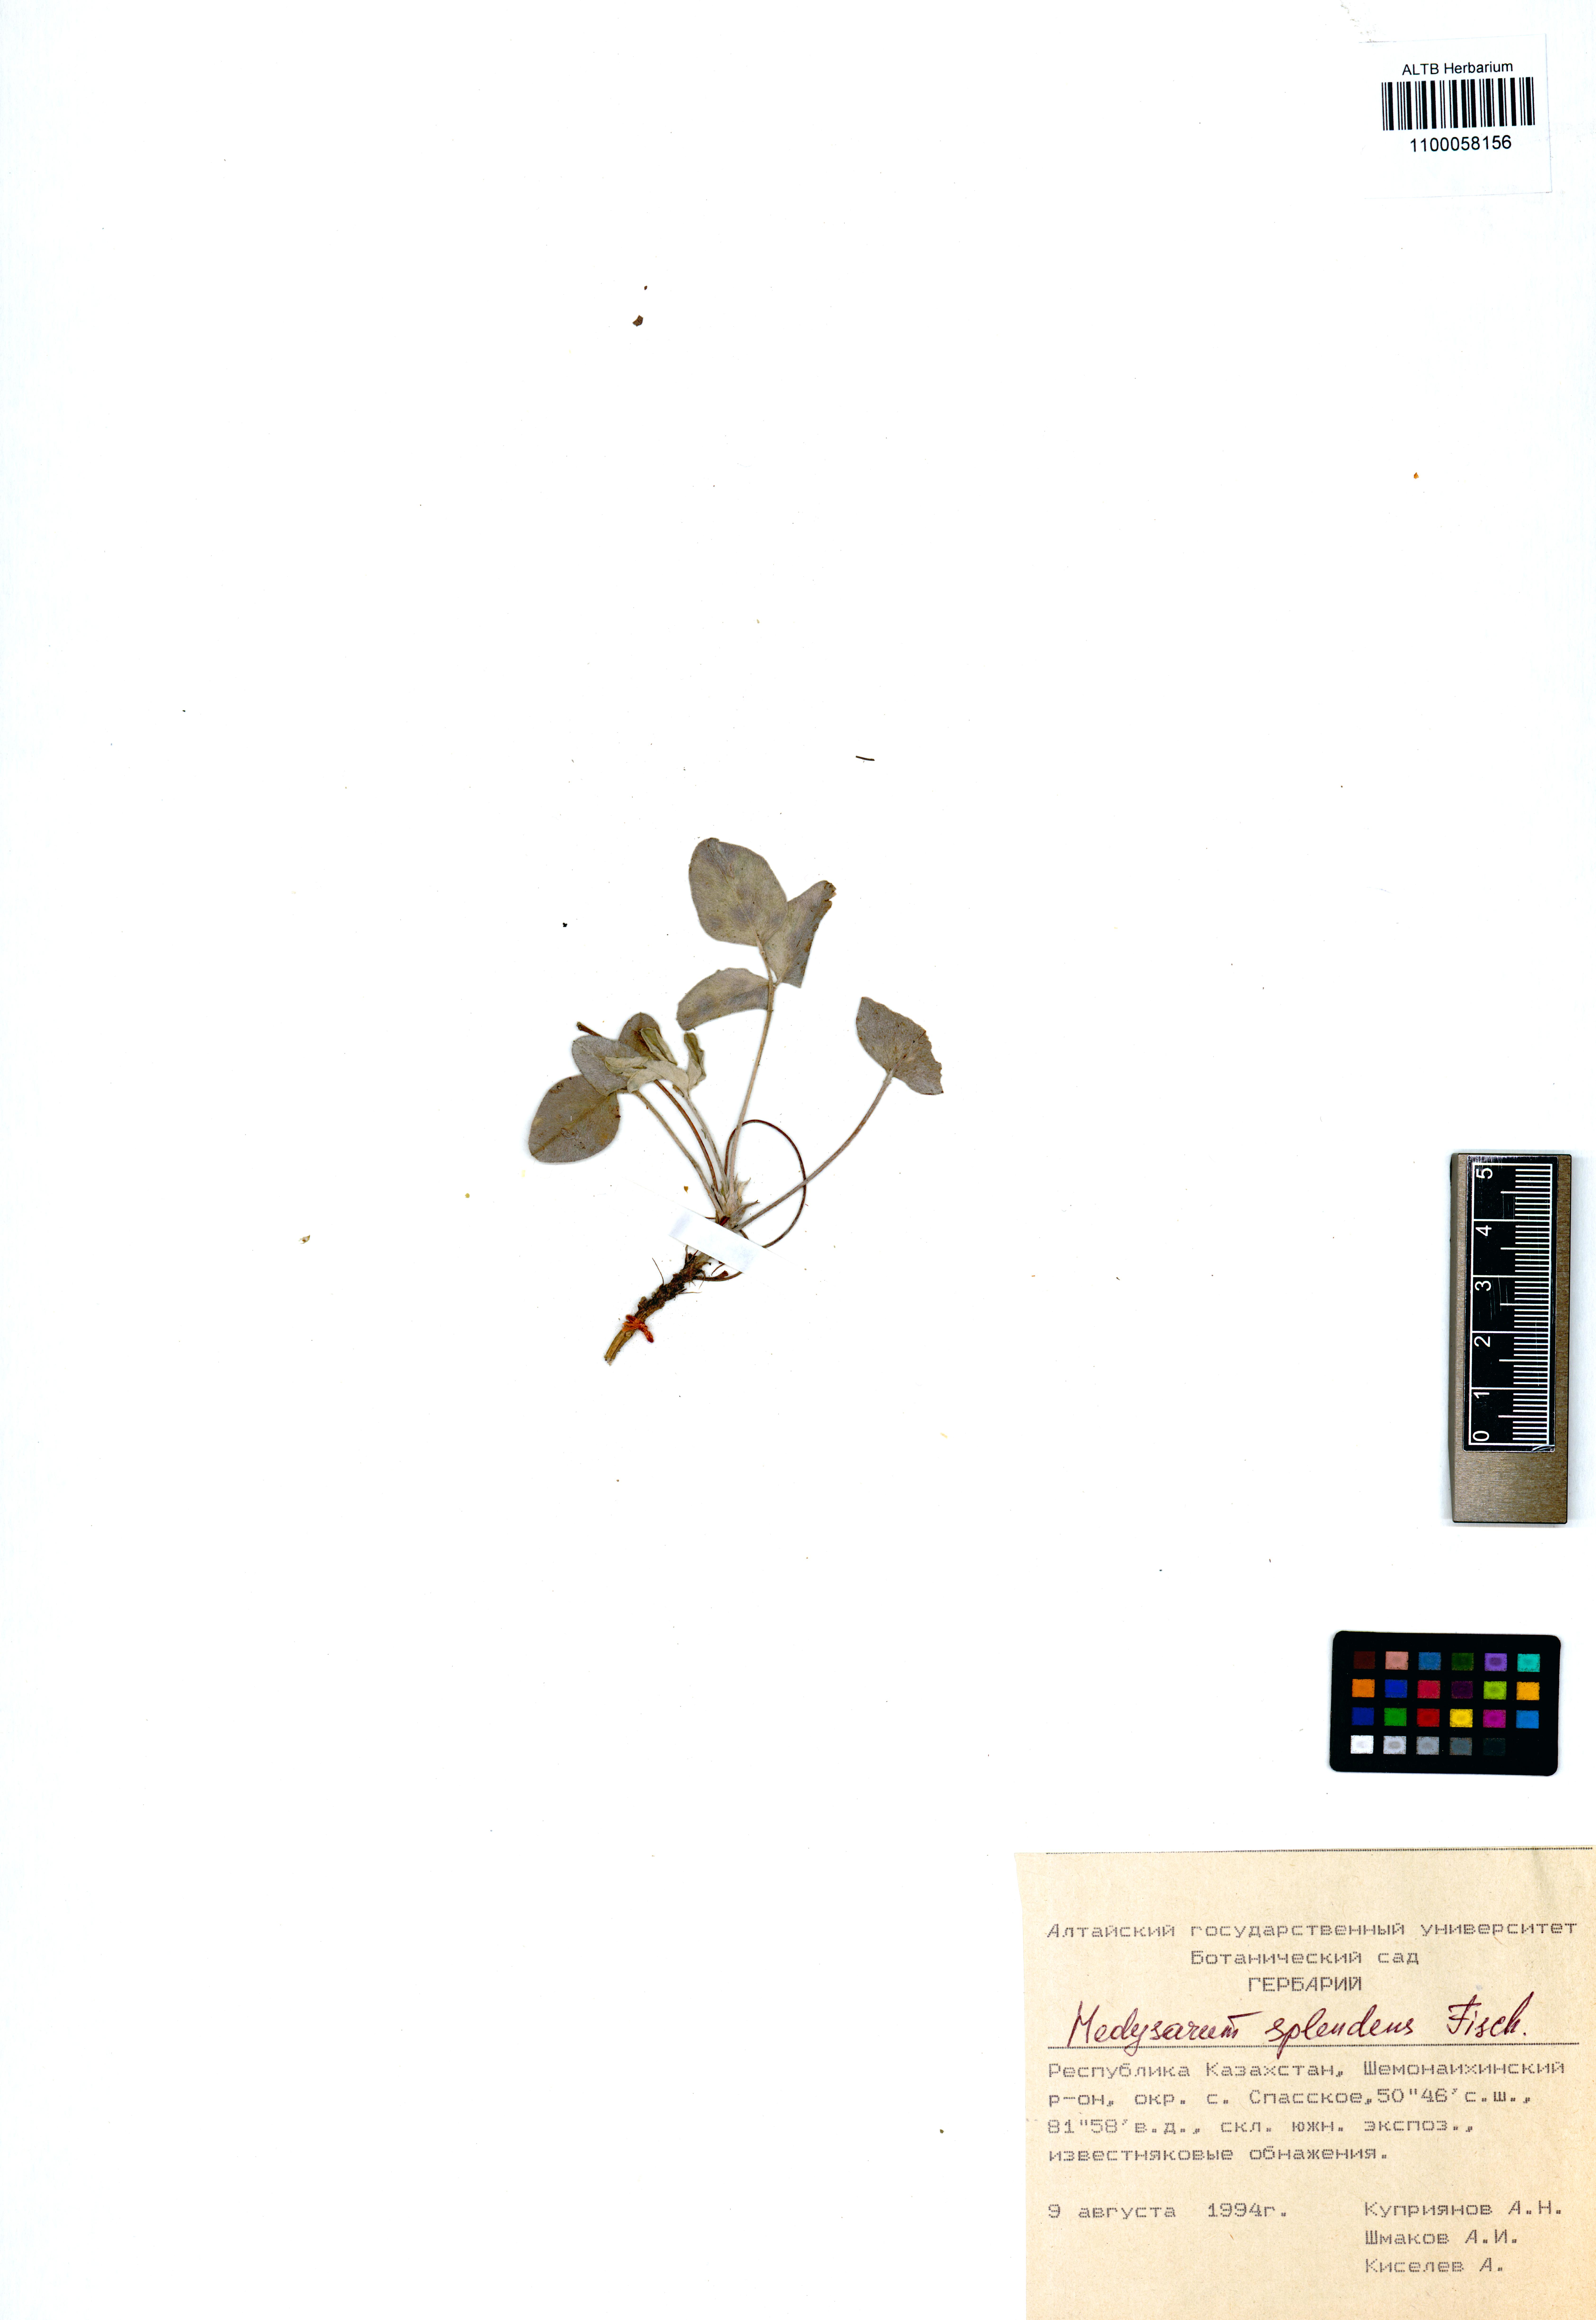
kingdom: Plantae
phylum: Tracheophyta
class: Magnoliopsida
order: Fabales
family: Fabaceae
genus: Hedysarum
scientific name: Hedysarum splendens
